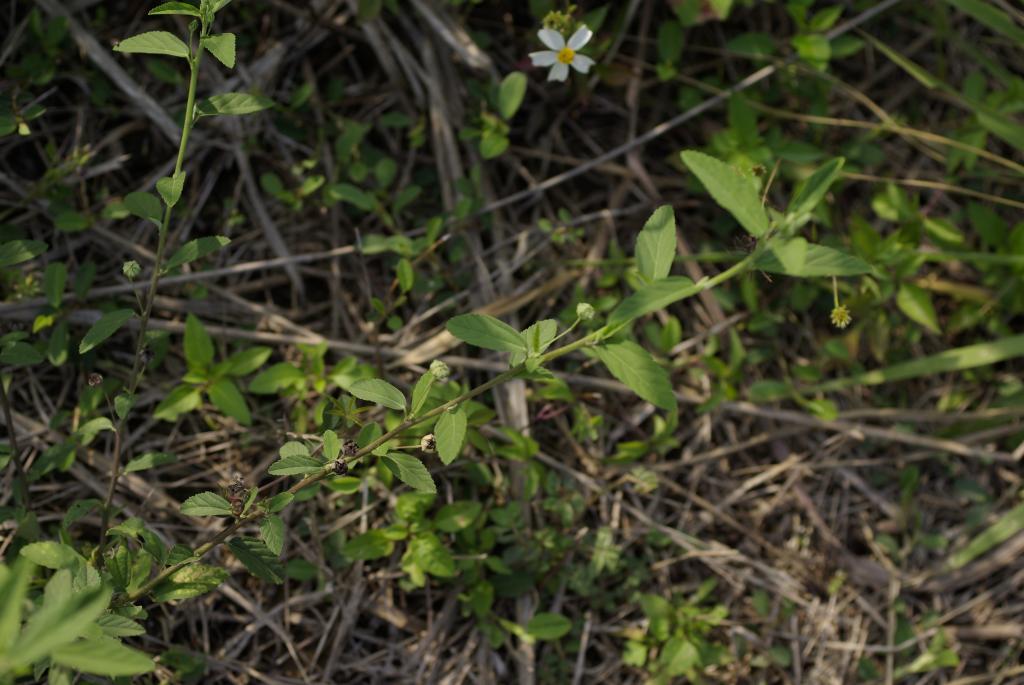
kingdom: Plantae
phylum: Tracheophyta
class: Magnoliopsida
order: Malvales
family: Malvaceae
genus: Sida
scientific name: Sida rhombifolia
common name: Queensland-hemp
